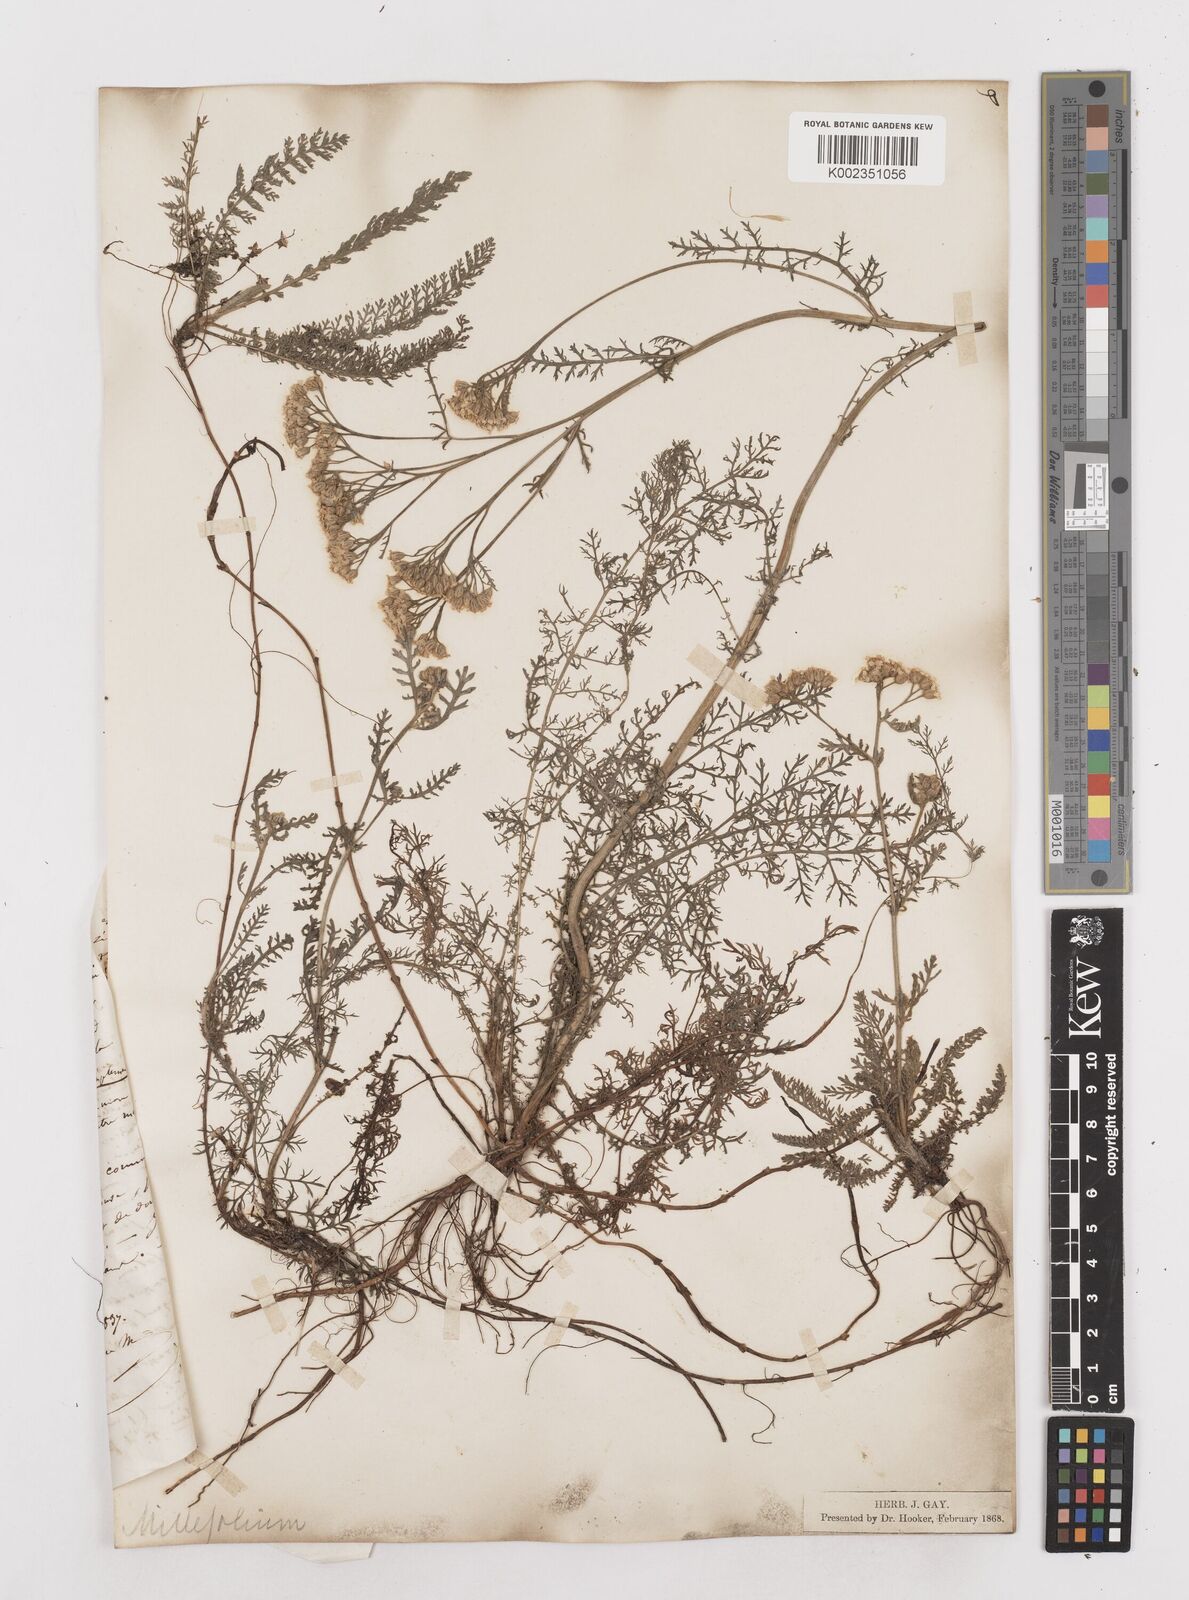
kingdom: Plantae
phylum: Tracheophyta
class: Magnoliopsida
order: Asterales
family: Asteraceae
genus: Achillea
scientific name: Achillea millefolium
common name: Yarrow
